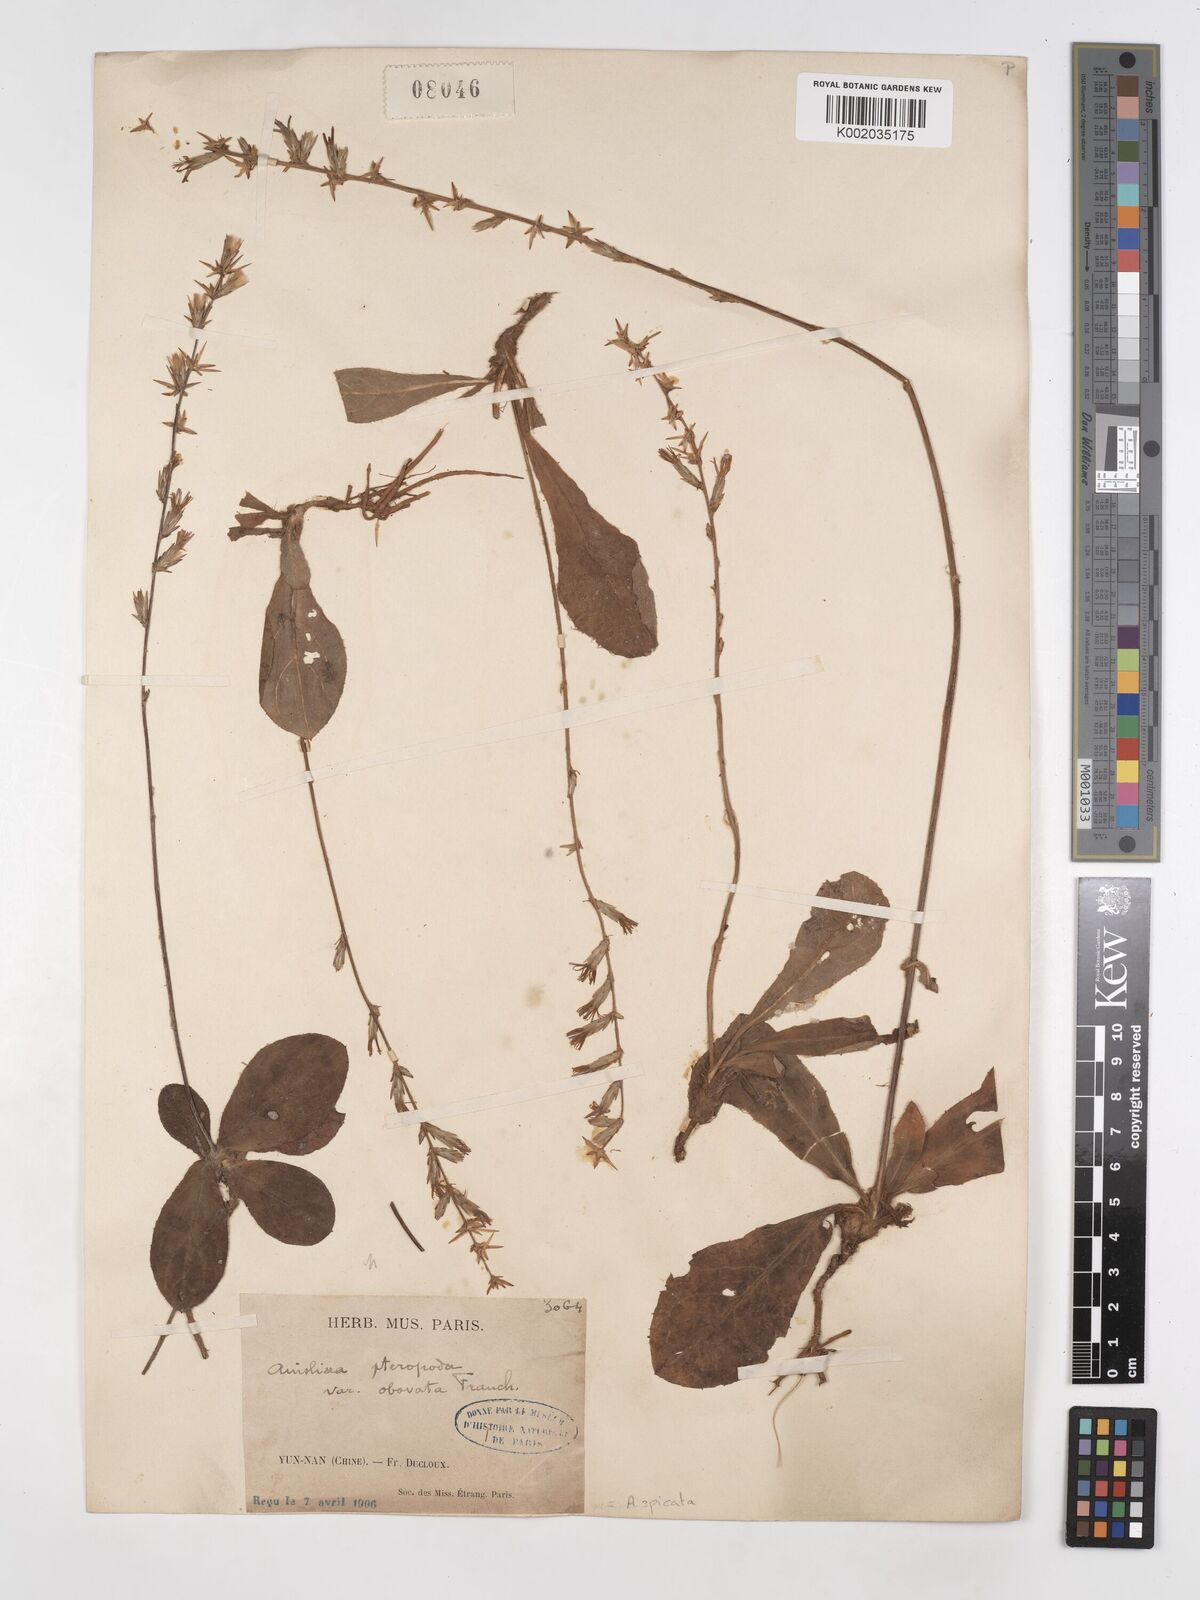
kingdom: Plantae
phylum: Tracheophyta
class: Magnoliopsida
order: Asterales
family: Asteraceae
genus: Ainsliaea
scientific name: Ainsliaea spicata
